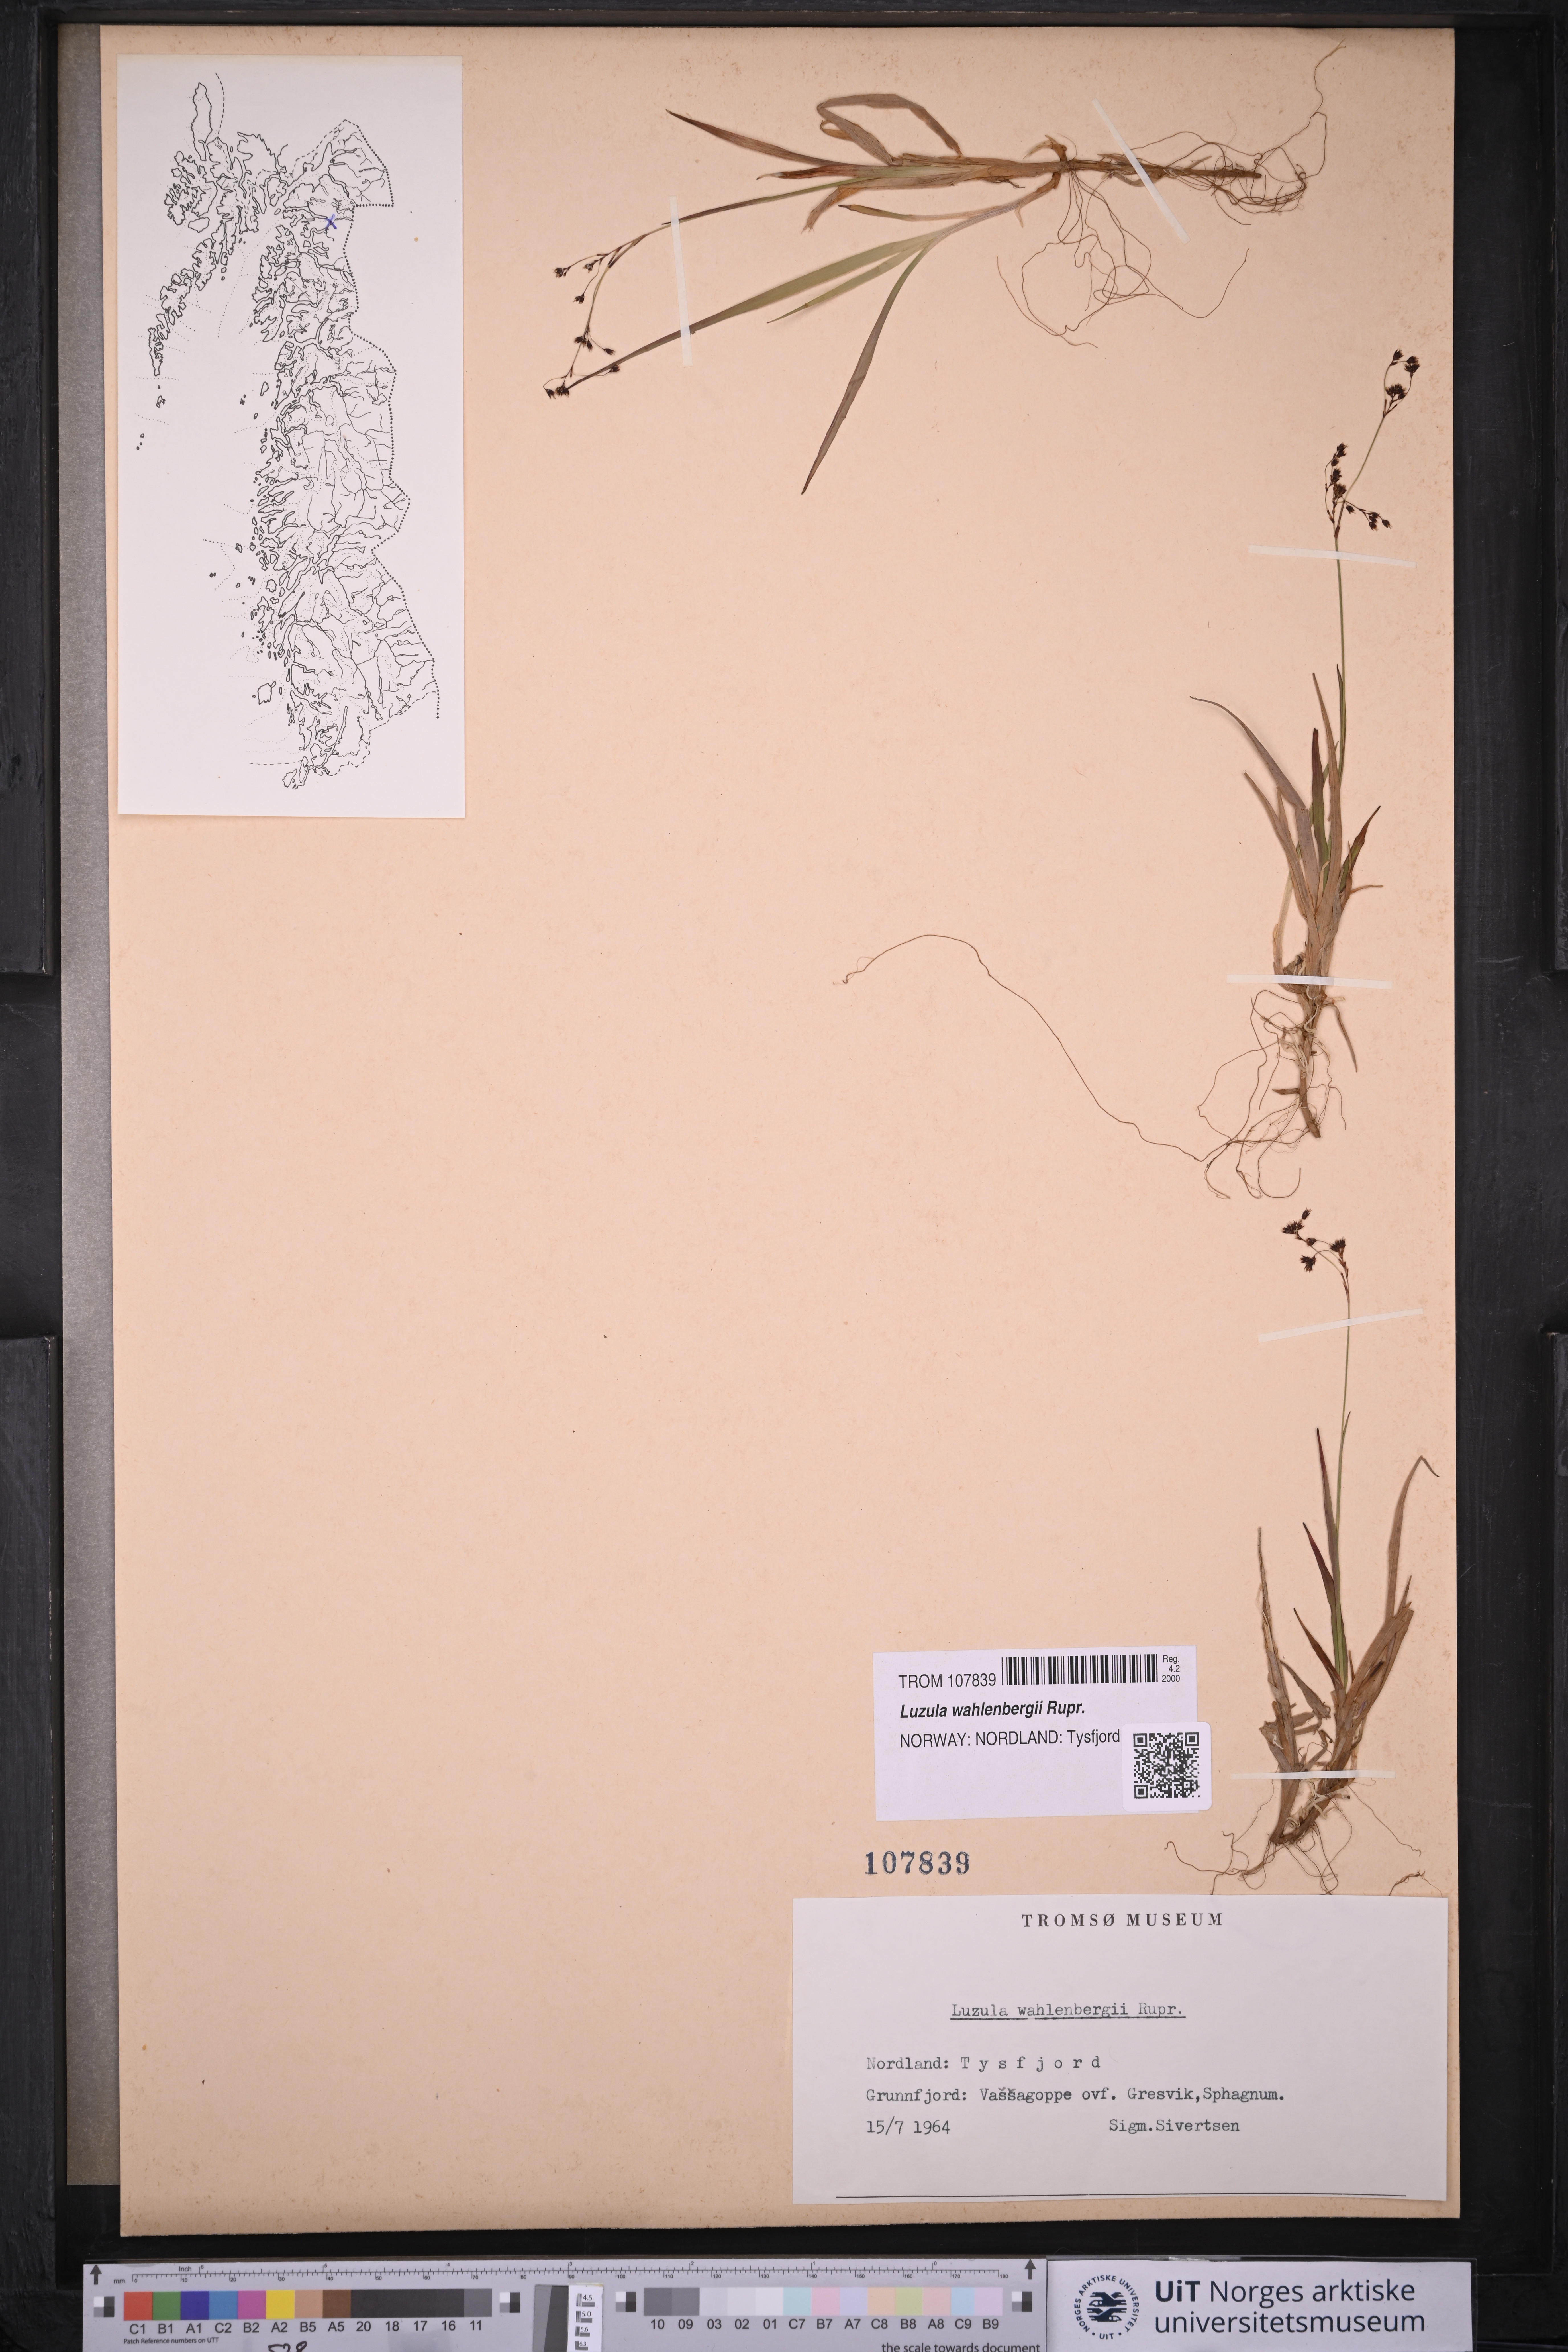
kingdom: Plantae
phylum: Tracheophyta
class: Liliopsida
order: Poales
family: Juncaceae
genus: Luzula
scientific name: Luzula wahlenbergii
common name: Wahlenberg's wood-rush
